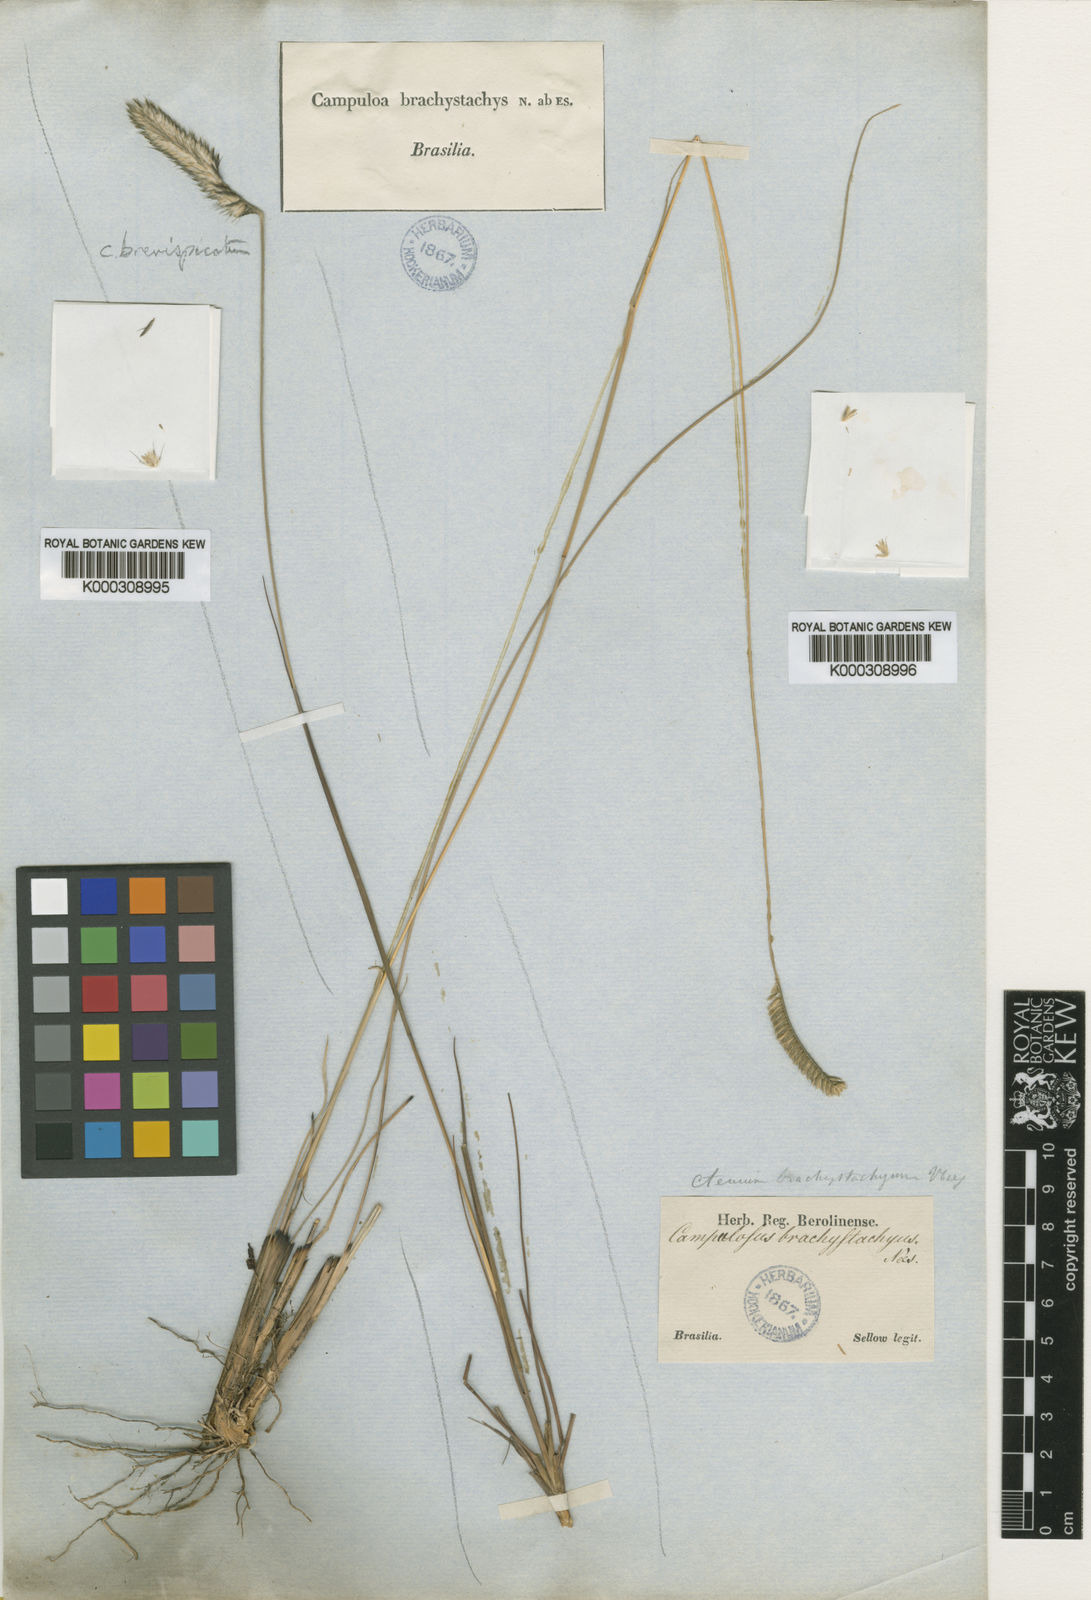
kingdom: Plantae
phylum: Tracheophyta
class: Liliopsida
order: Poales
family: Poaceae
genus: Ctenium
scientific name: Ctenium brachystachyum
